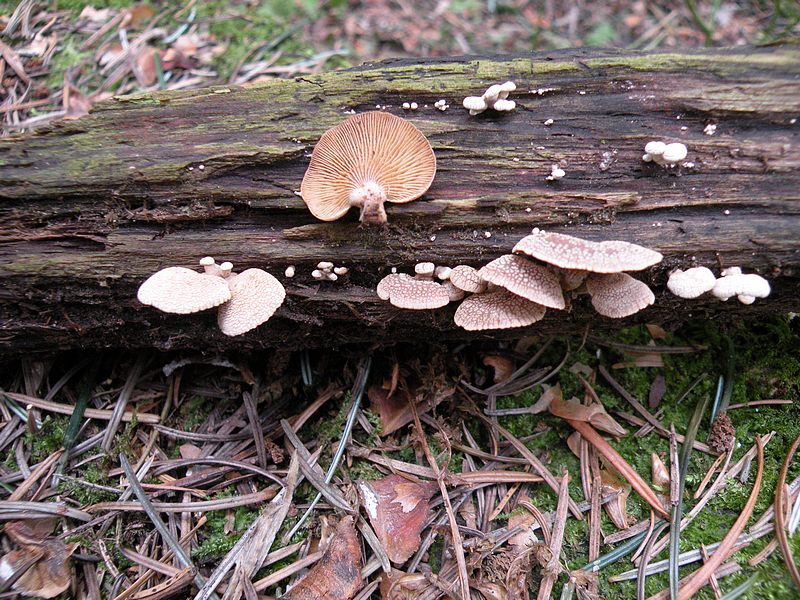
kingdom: Fungi
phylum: Basidiomycota
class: Agaricomycetes
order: Agaricales
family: Mycenaceae
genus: Panellus
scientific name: Panellus stipticus
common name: kliddet epaulethat
